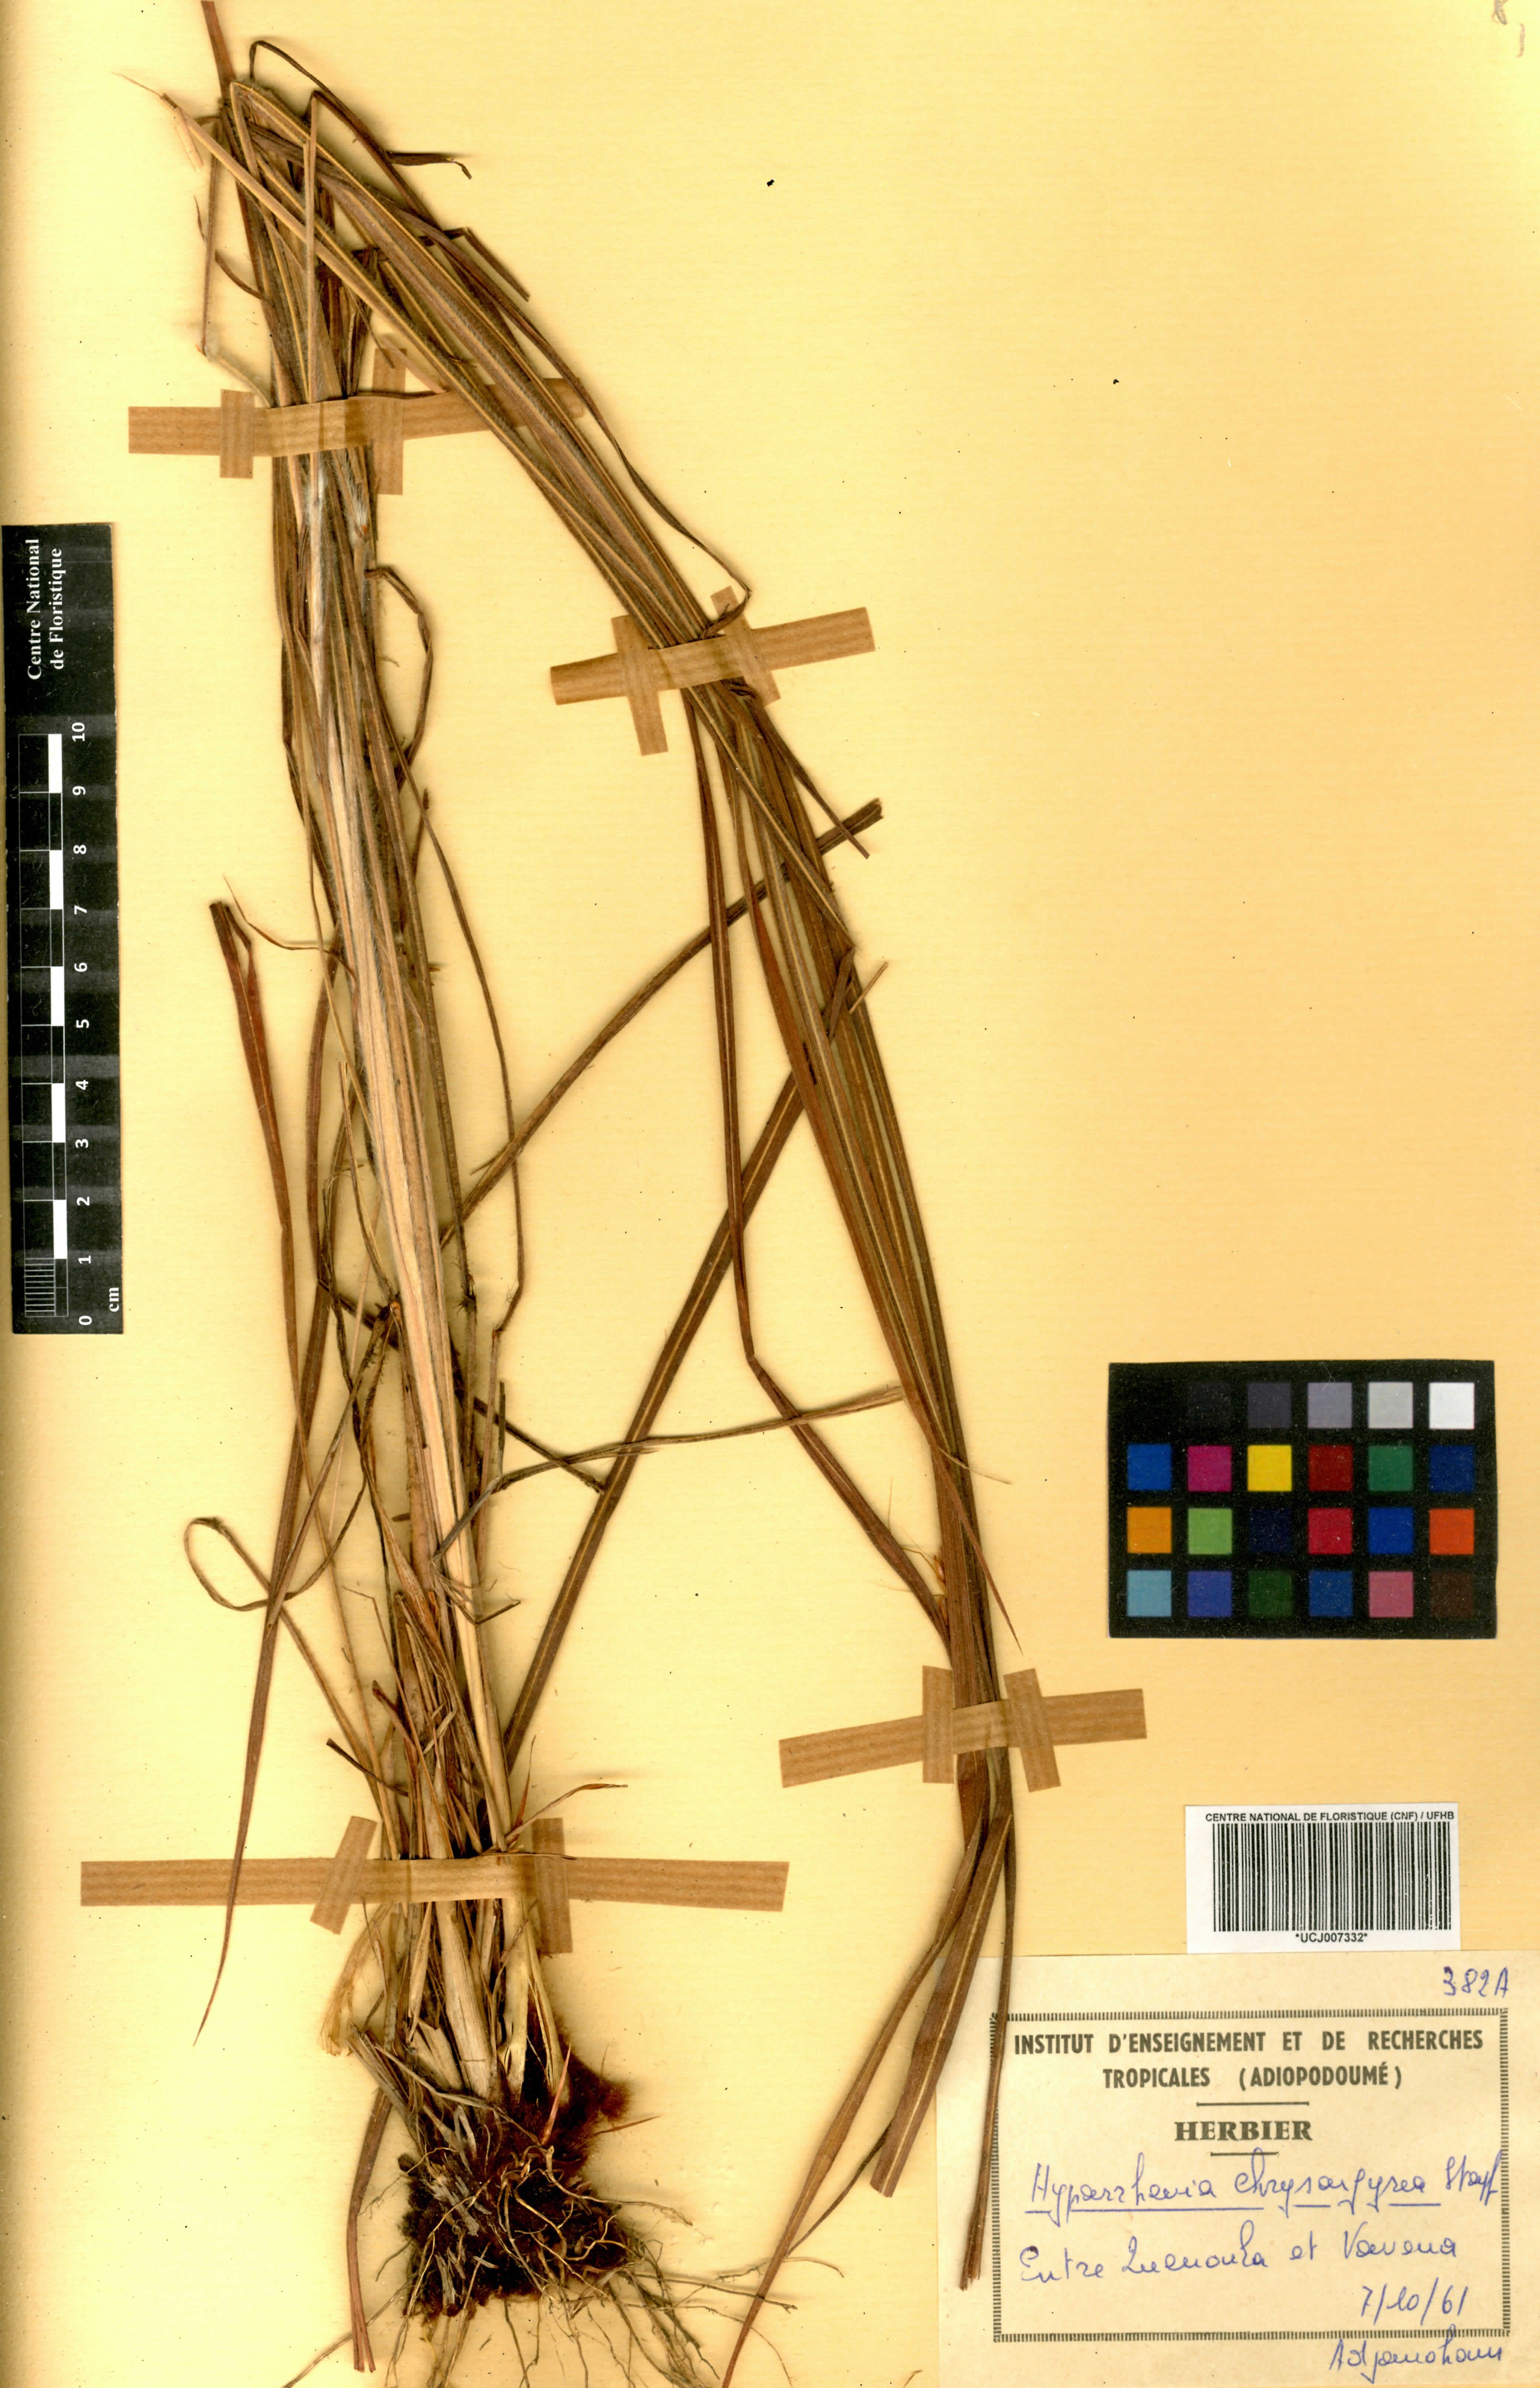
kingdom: Plantae
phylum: Tracheophyta
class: Liliopsida
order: Poales
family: Poaceae
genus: Hyparrhenia
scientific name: Hyparrhenia nyassae
